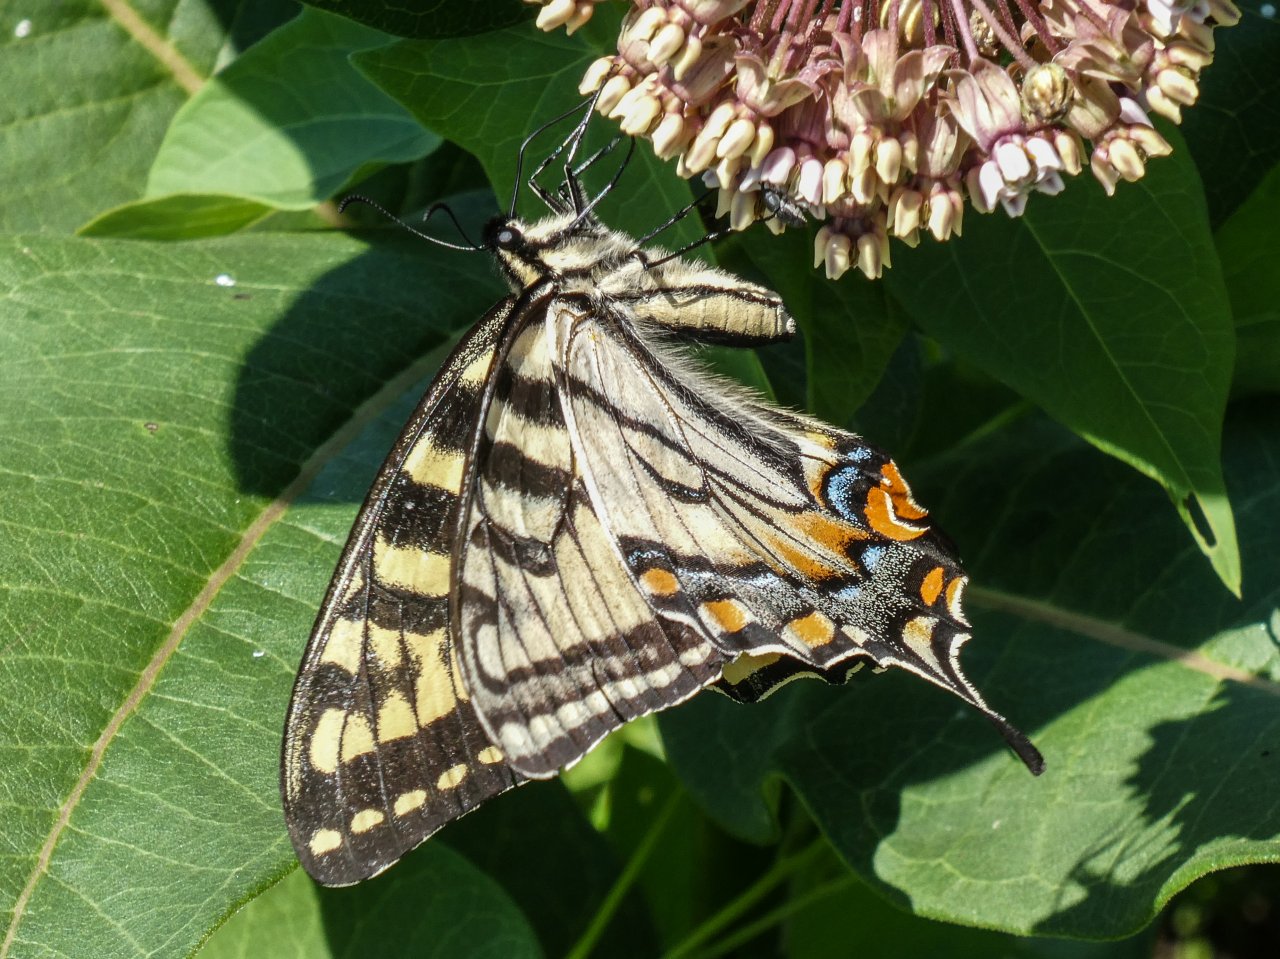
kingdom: Animalia
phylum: Arthropoda
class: Insecta
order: Lepidoptera
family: Papilionidae
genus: Pterourus
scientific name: Pterourus canadensis
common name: Canadian Tiger Swallowtail
